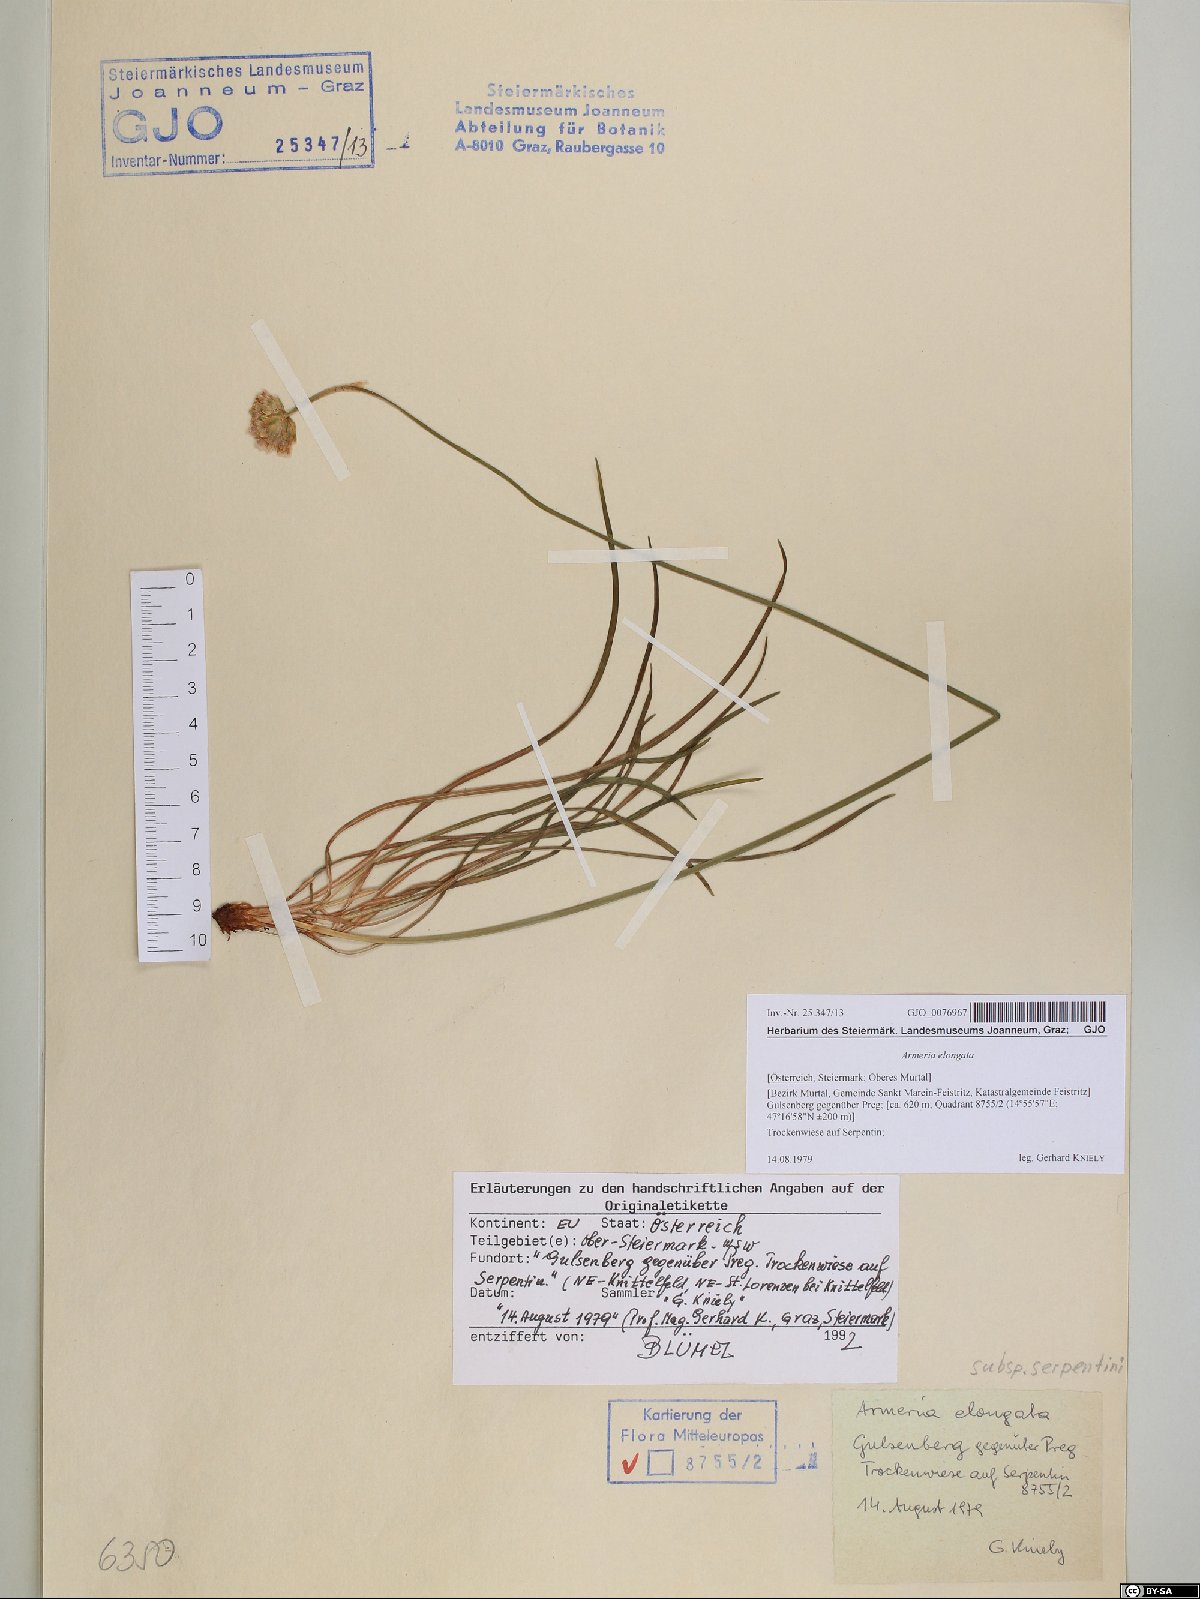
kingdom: Plantae
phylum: Tracheophyta
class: Magnoliopsida
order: Caryophyllales
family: Plumbaginaceae
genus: Armeria
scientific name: Armeria maritima
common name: Thrift
